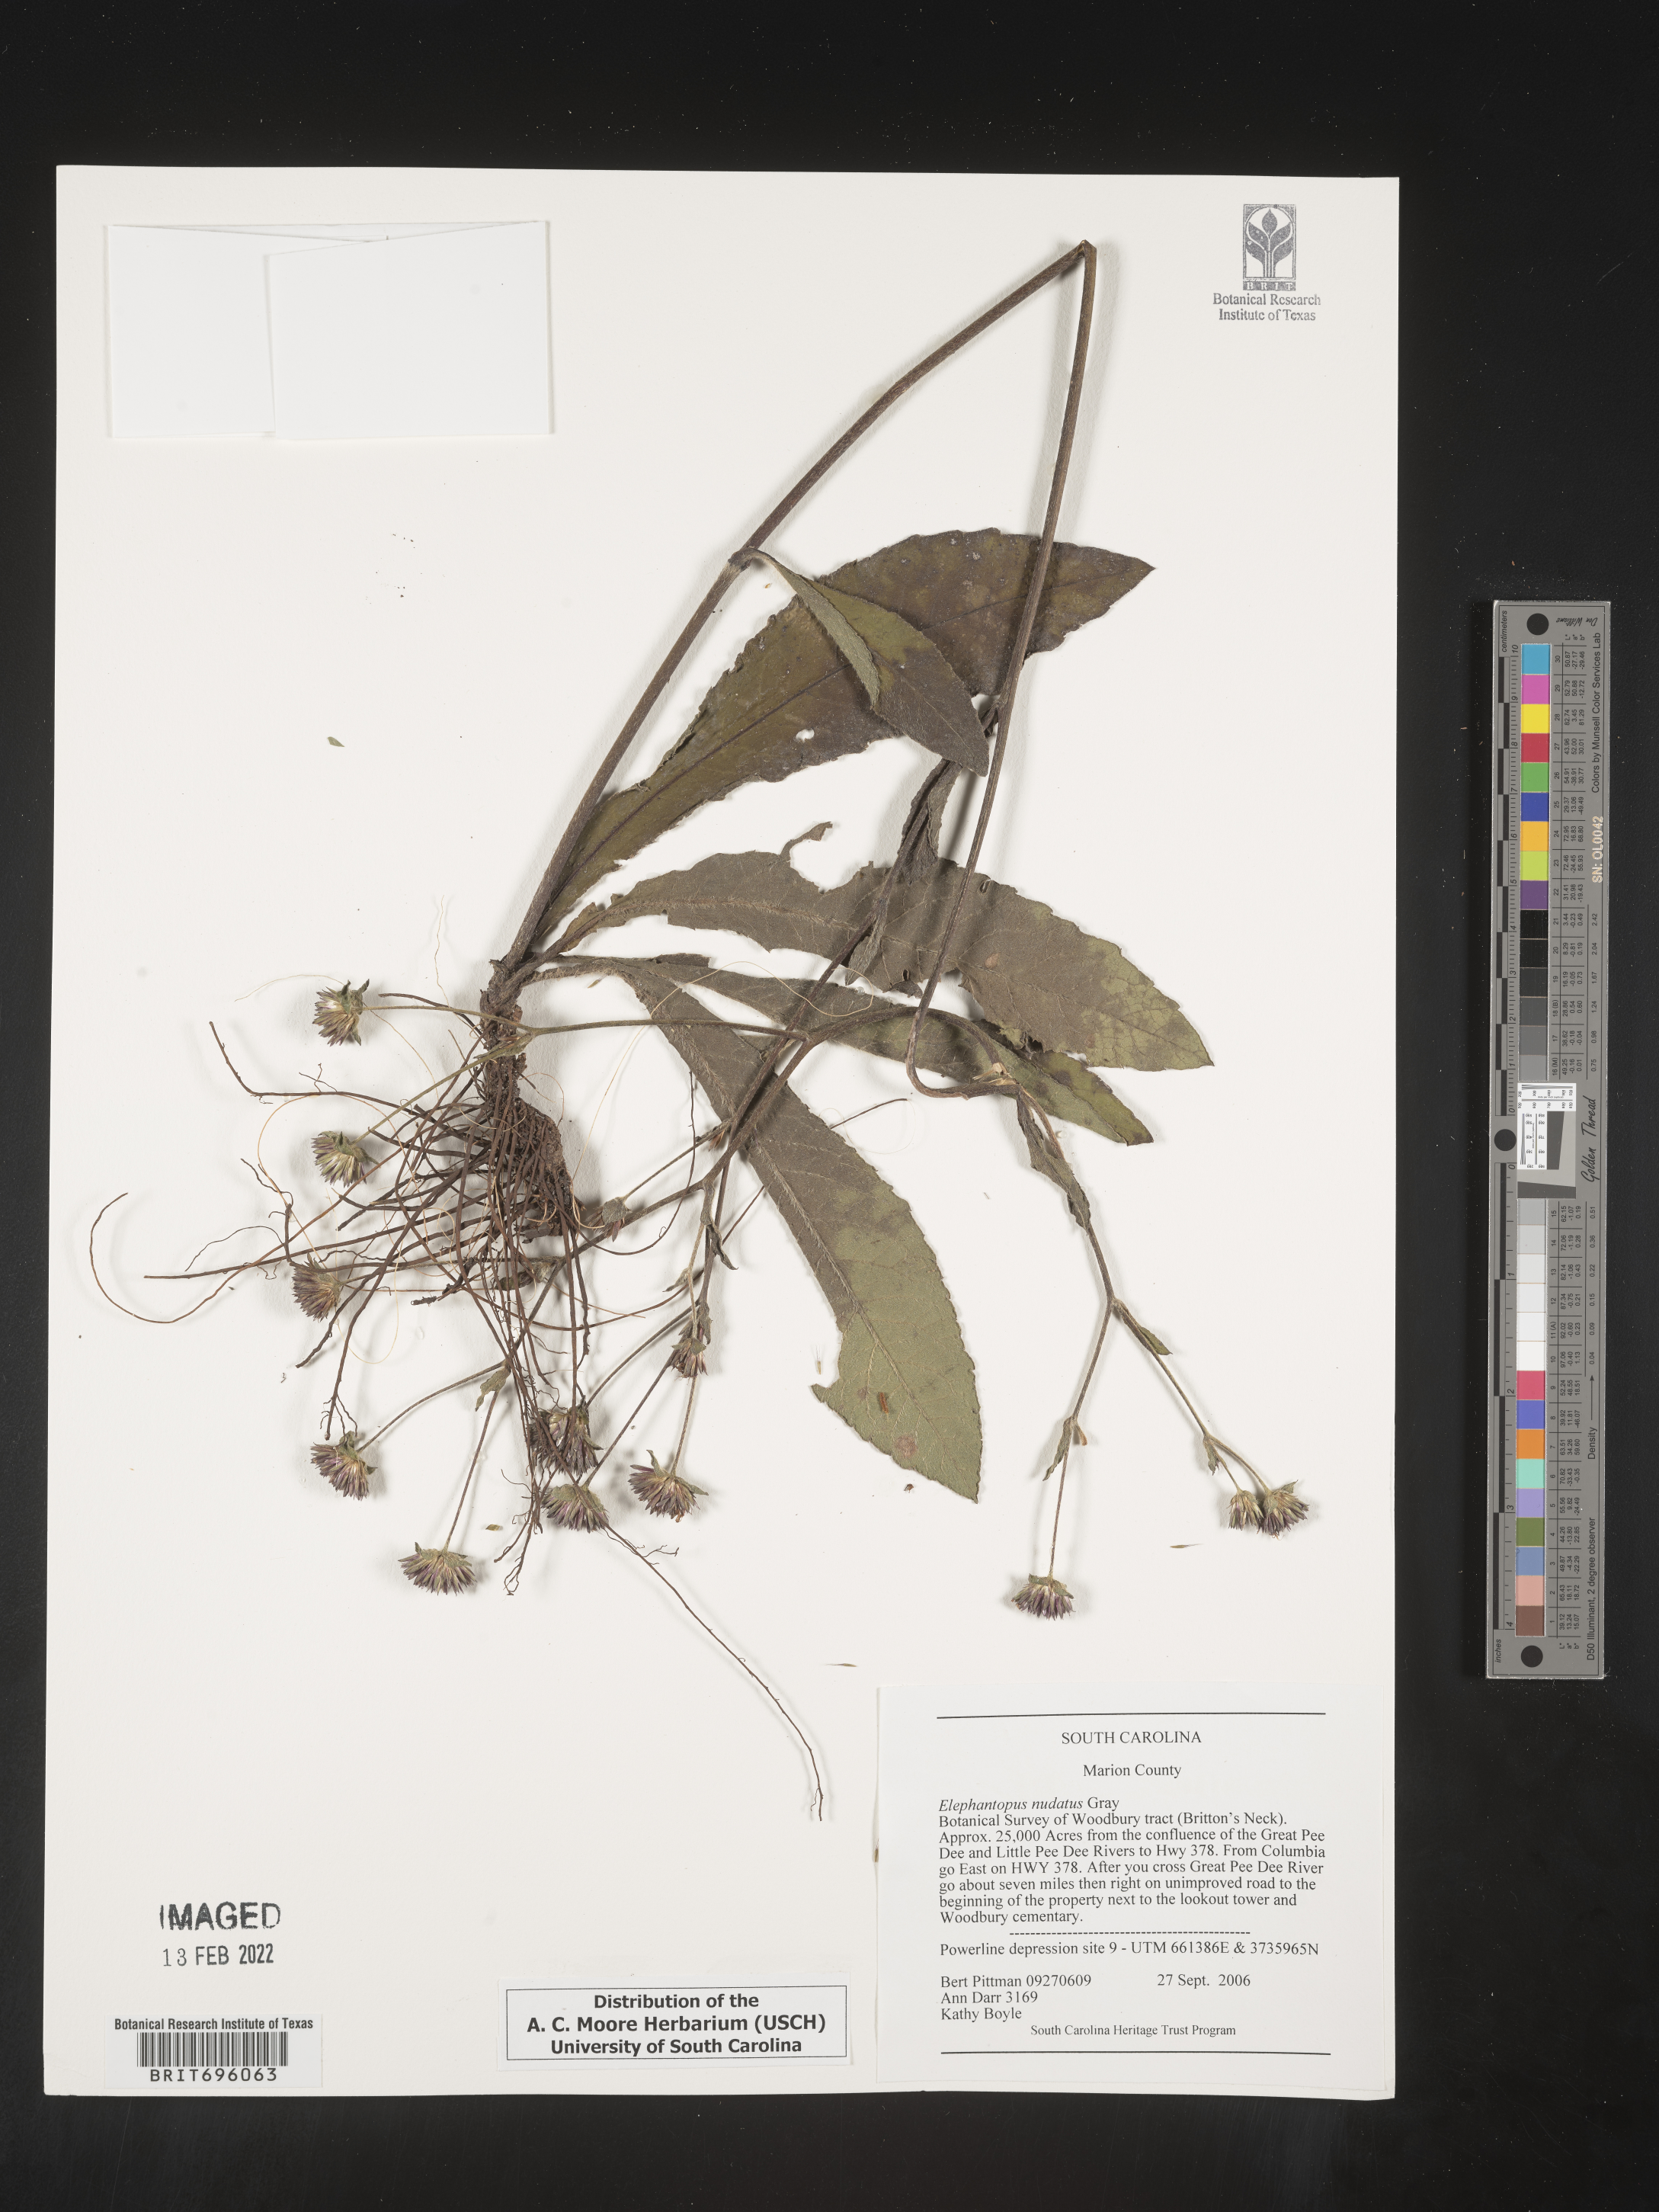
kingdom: Plantae
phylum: Tracheophyta
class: Magnoliopsida
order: Asterales
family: Asteraceae
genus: Elephantopus
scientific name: Elephantopus nudatus
